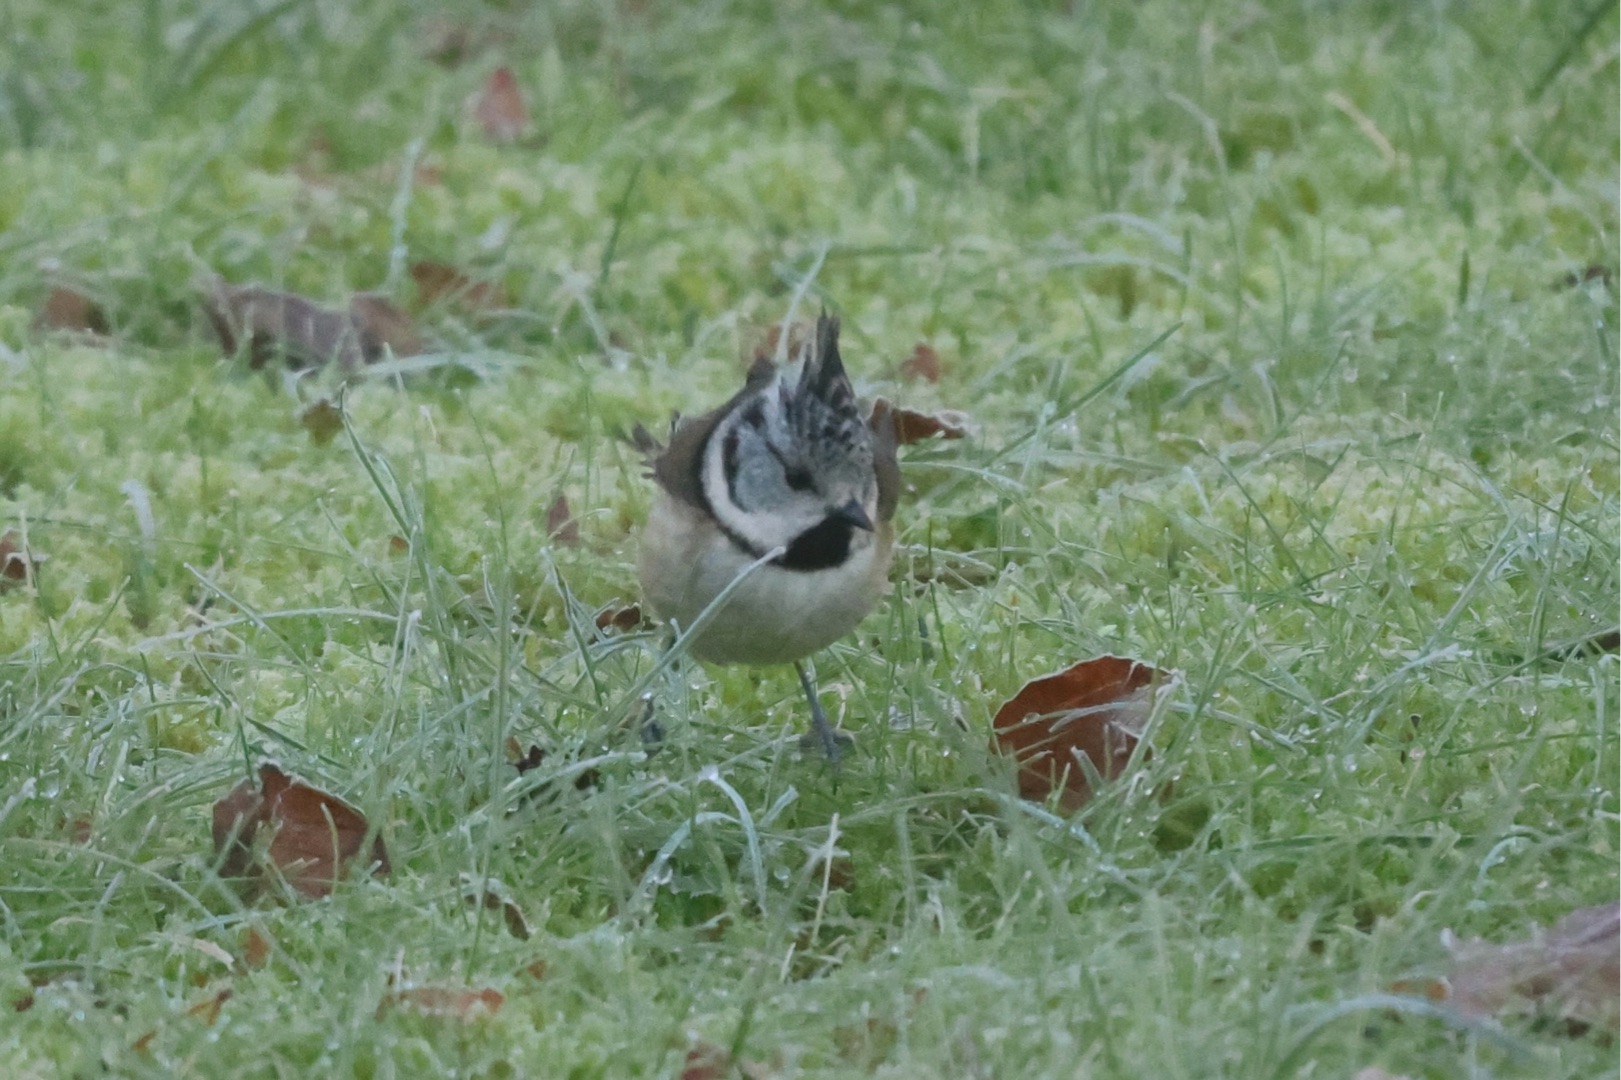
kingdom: Animalia
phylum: Chordata
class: Aves
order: Passeriformes
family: Paridae
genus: Lophophanes
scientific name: Lophophanes cristatus
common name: Topmejse
